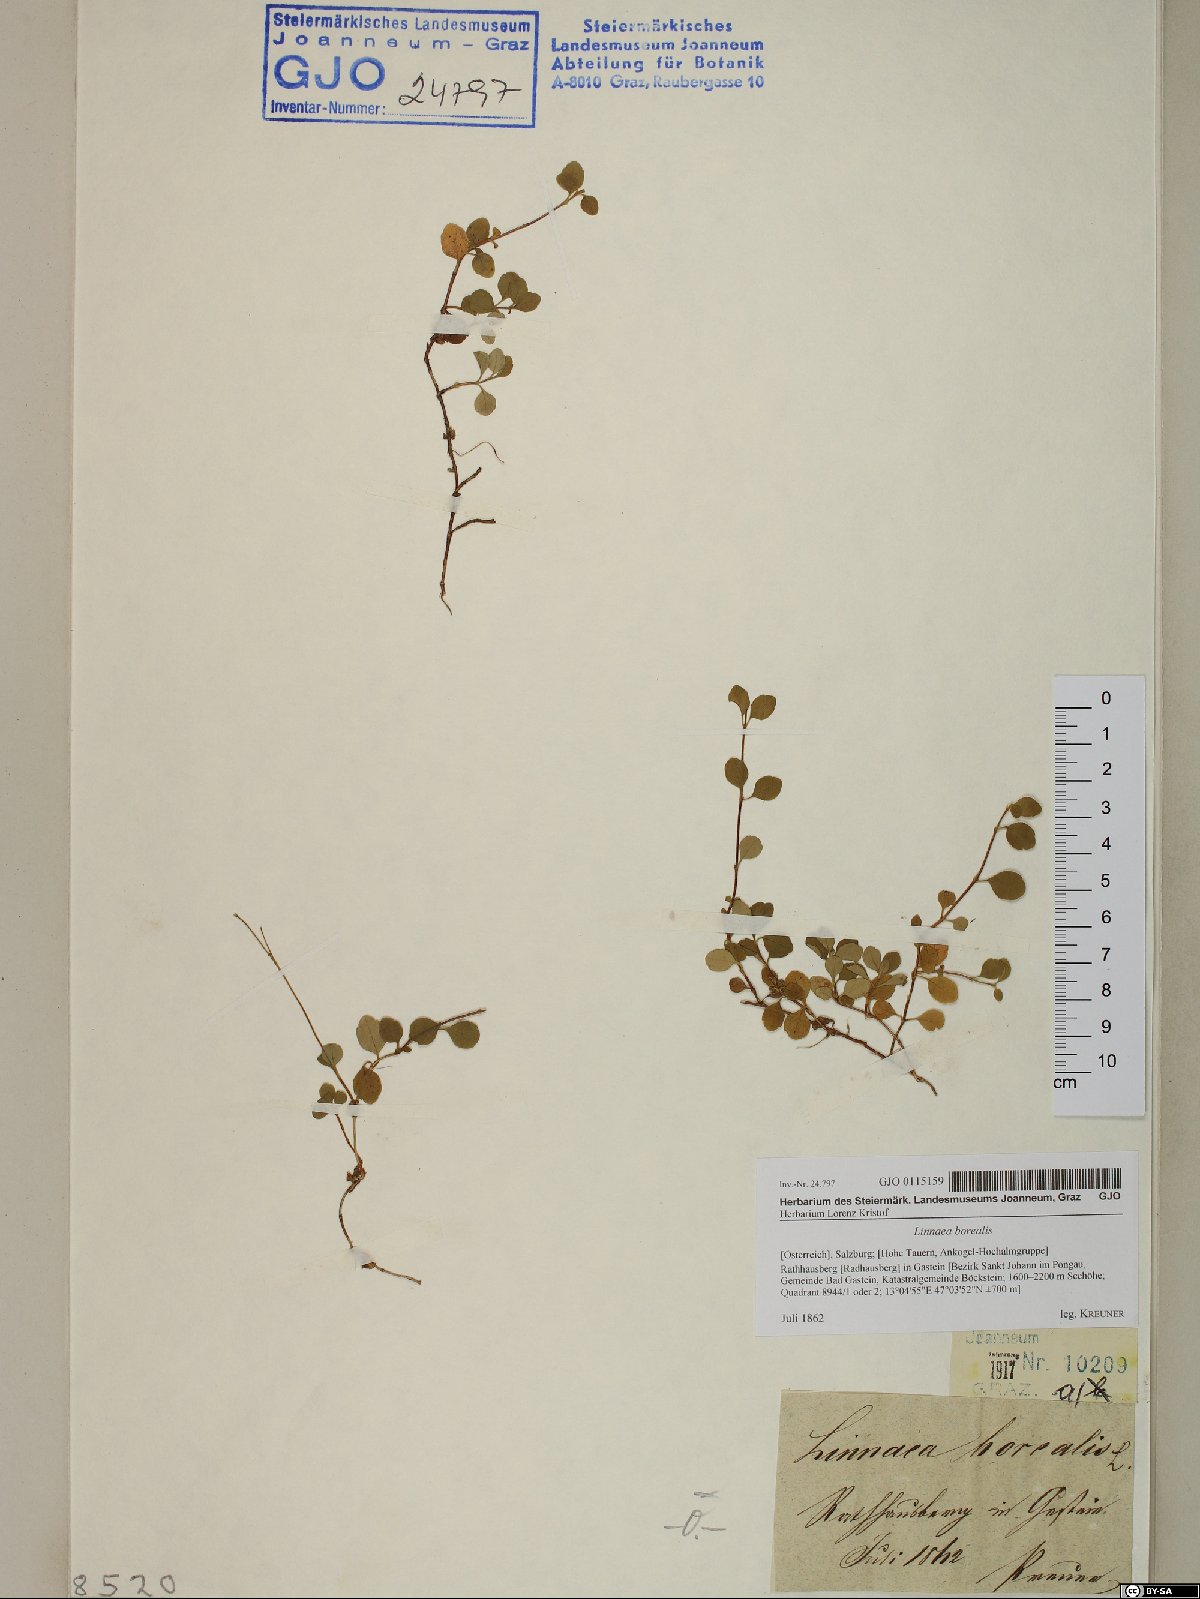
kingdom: Plantae
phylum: Tracheophyta
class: Magnoliopsida
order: Dipsacales
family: Caprifoliaceae
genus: Linnaea
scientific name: Linnaea borealis
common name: Twinflower
